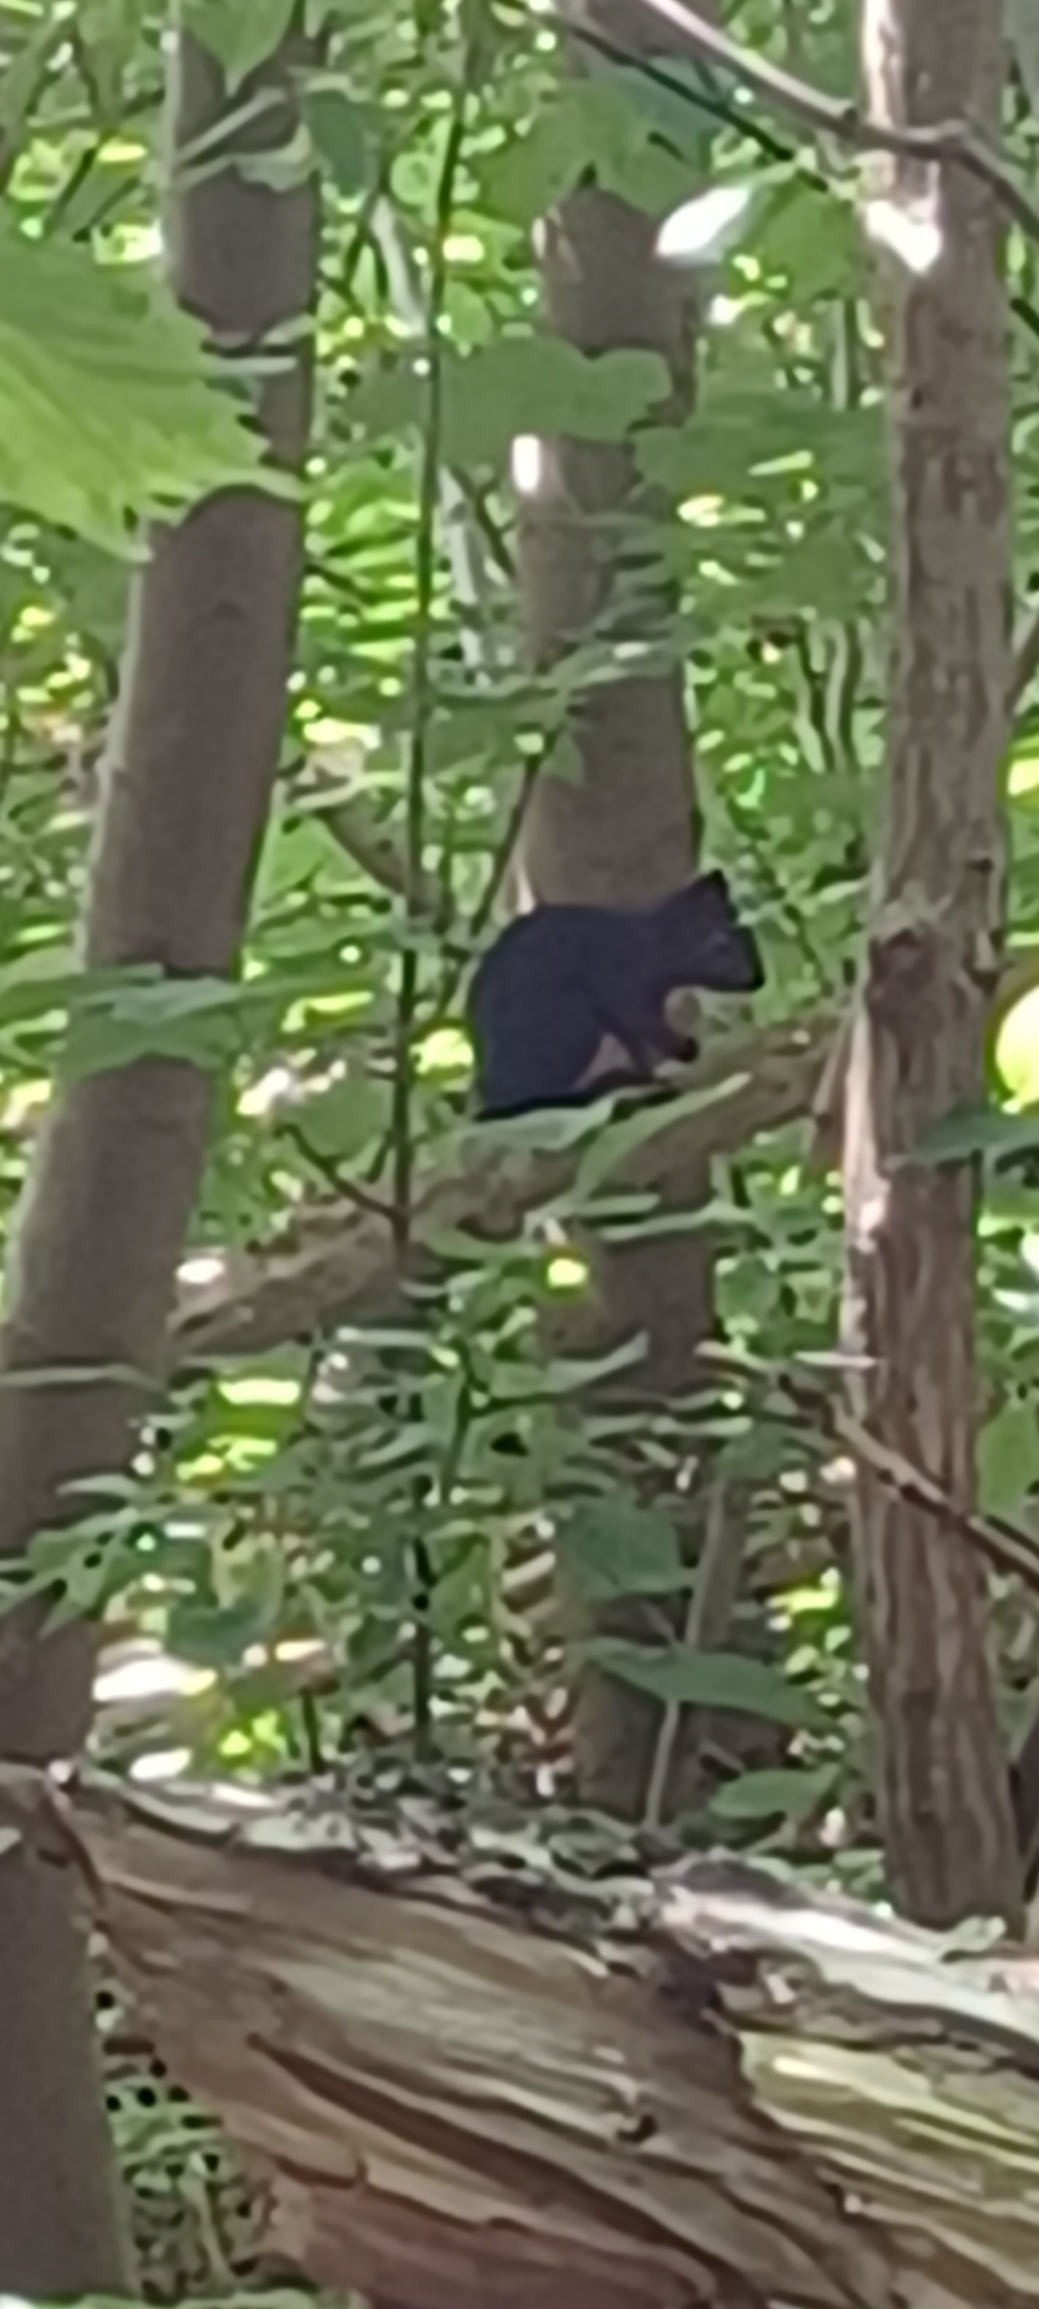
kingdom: Animalia
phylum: Chordata
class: Mammalia
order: Rodentia
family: Sciuridae
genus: Sciurus
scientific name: Sciurus vulgaris
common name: Egern
